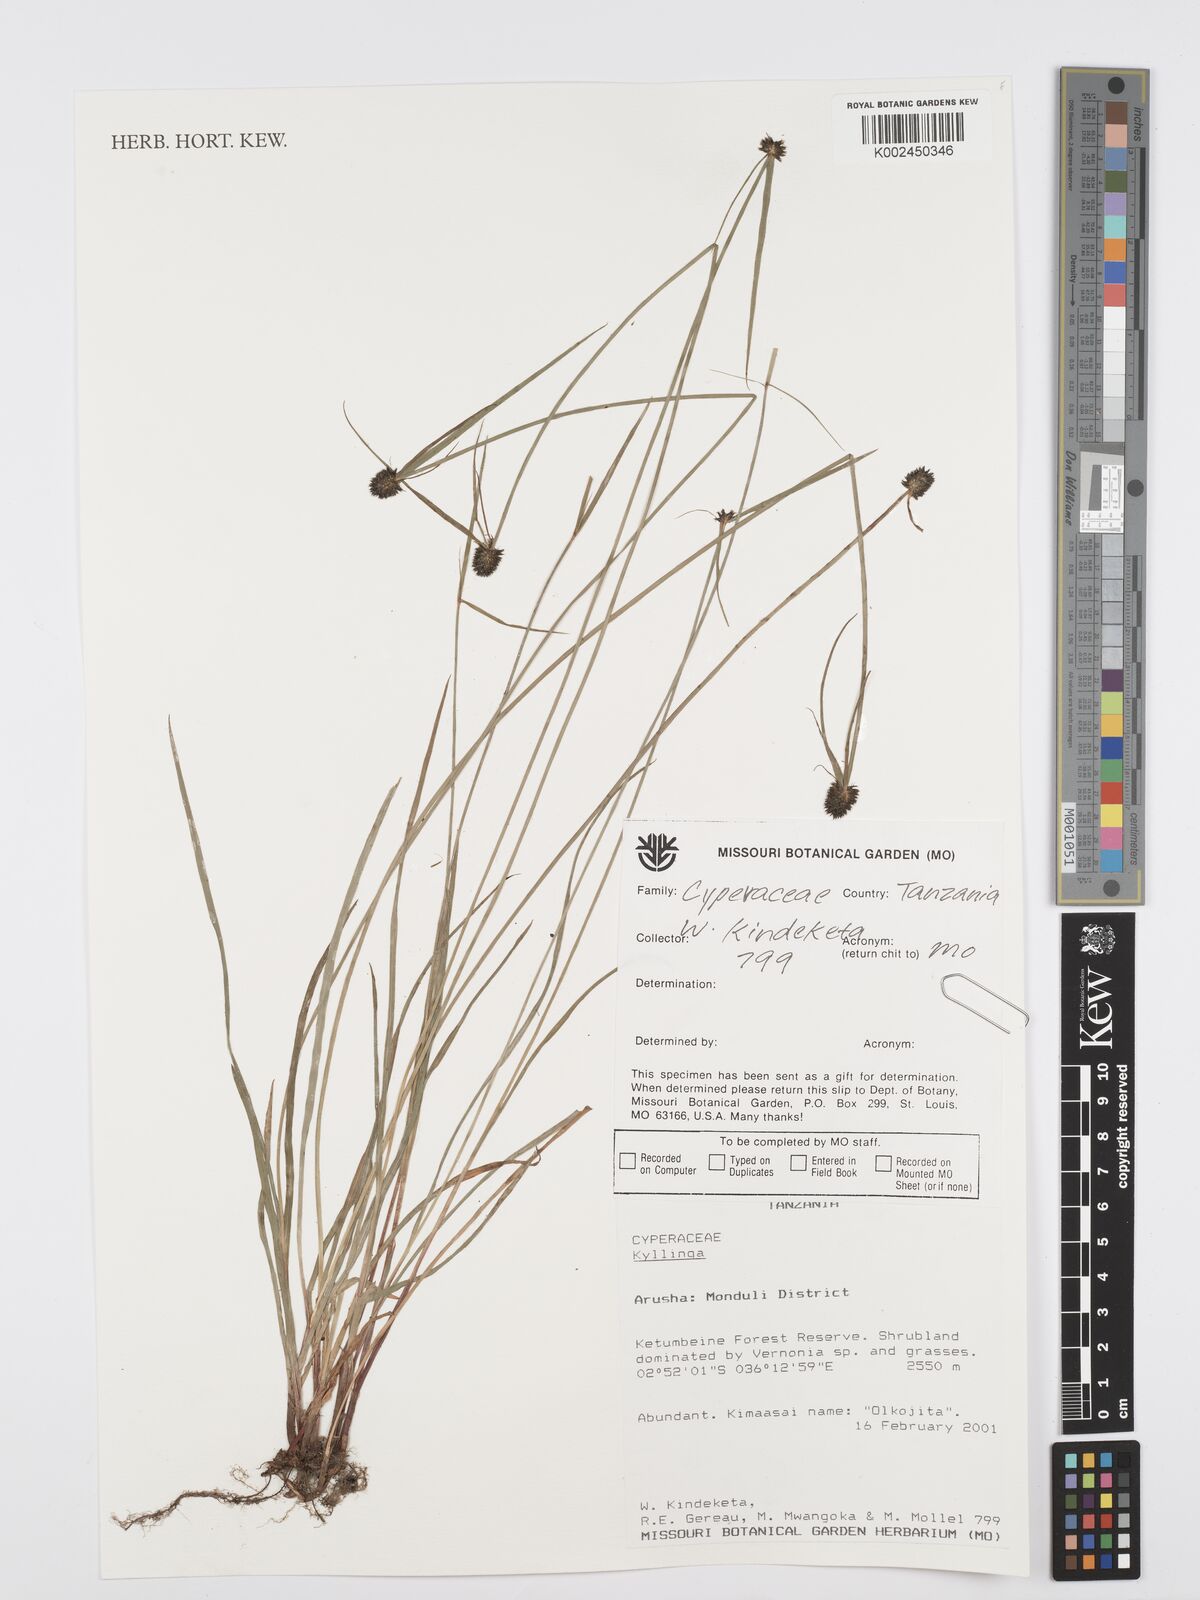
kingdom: Plantae
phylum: Tracheophyta
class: Liliopsida
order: Poales
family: Cyperaceae
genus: Cyperus
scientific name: Cyperus
